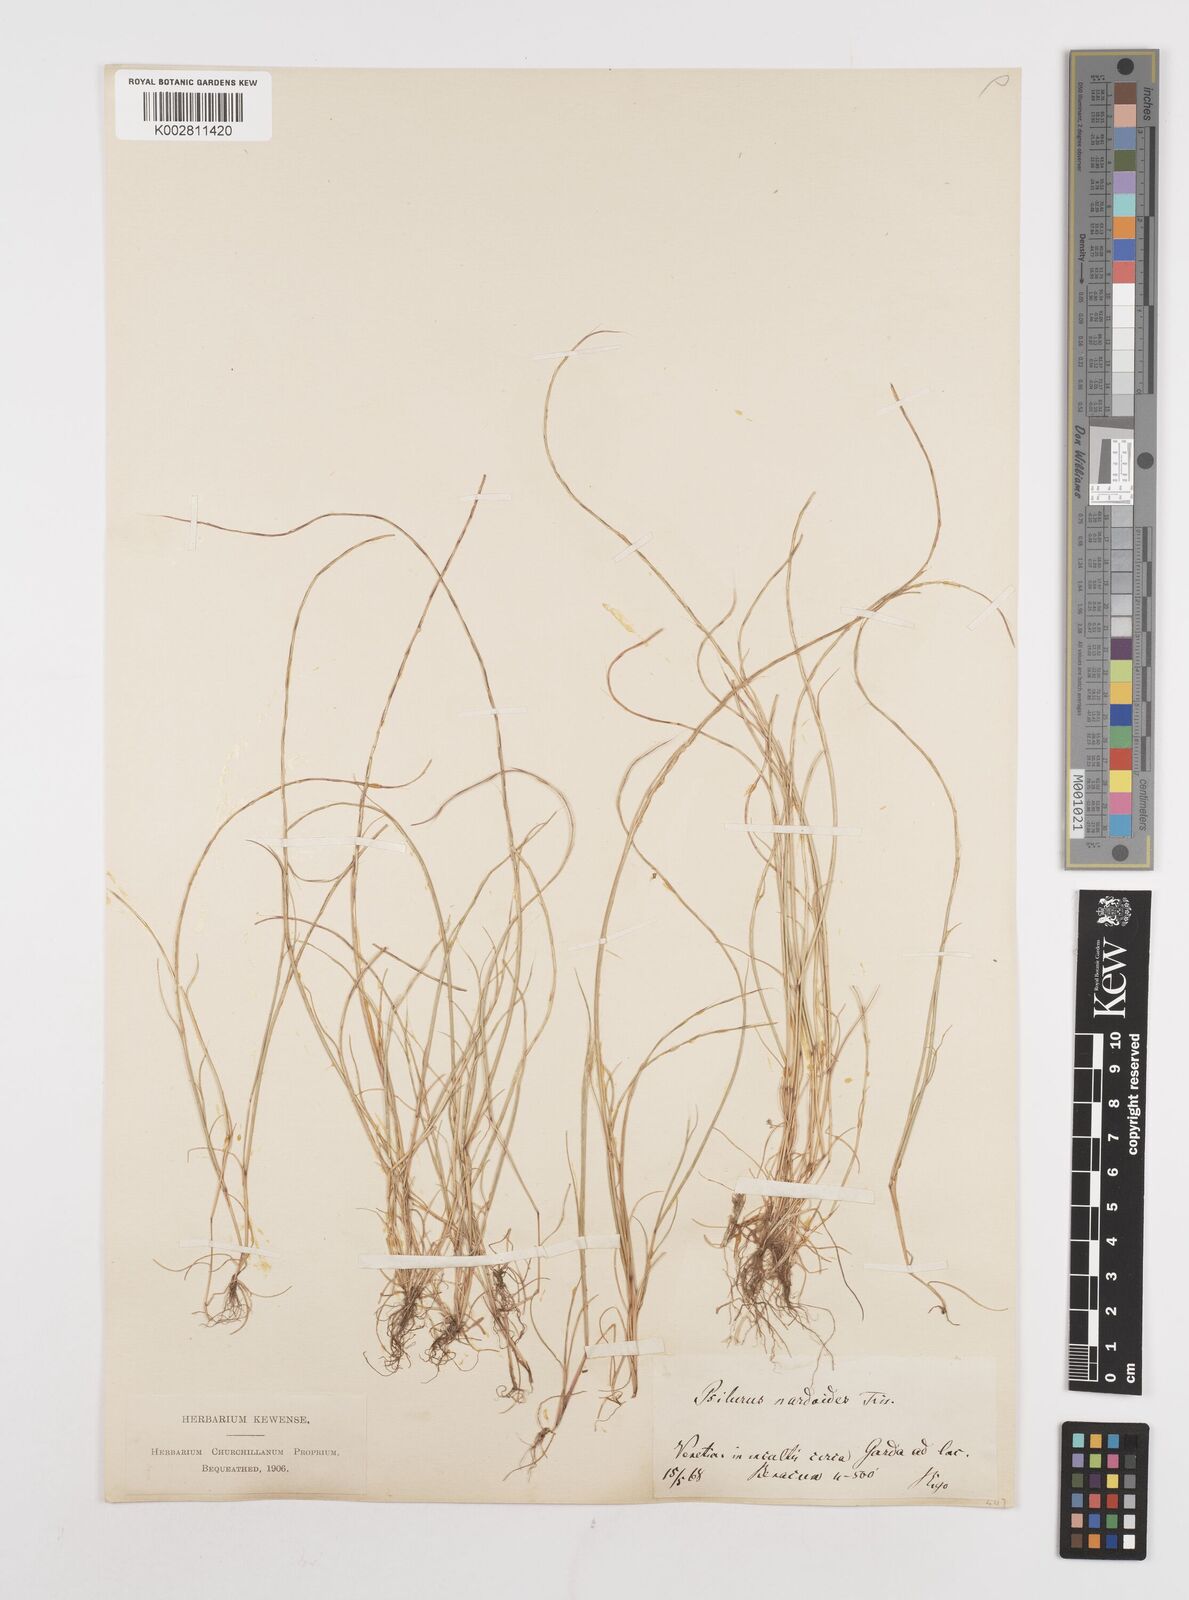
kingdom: Plantae
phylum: Tracheophyta
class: Liliopsida
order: Poales
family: Poaceae
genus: Festuca
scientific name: Festuca incurva
